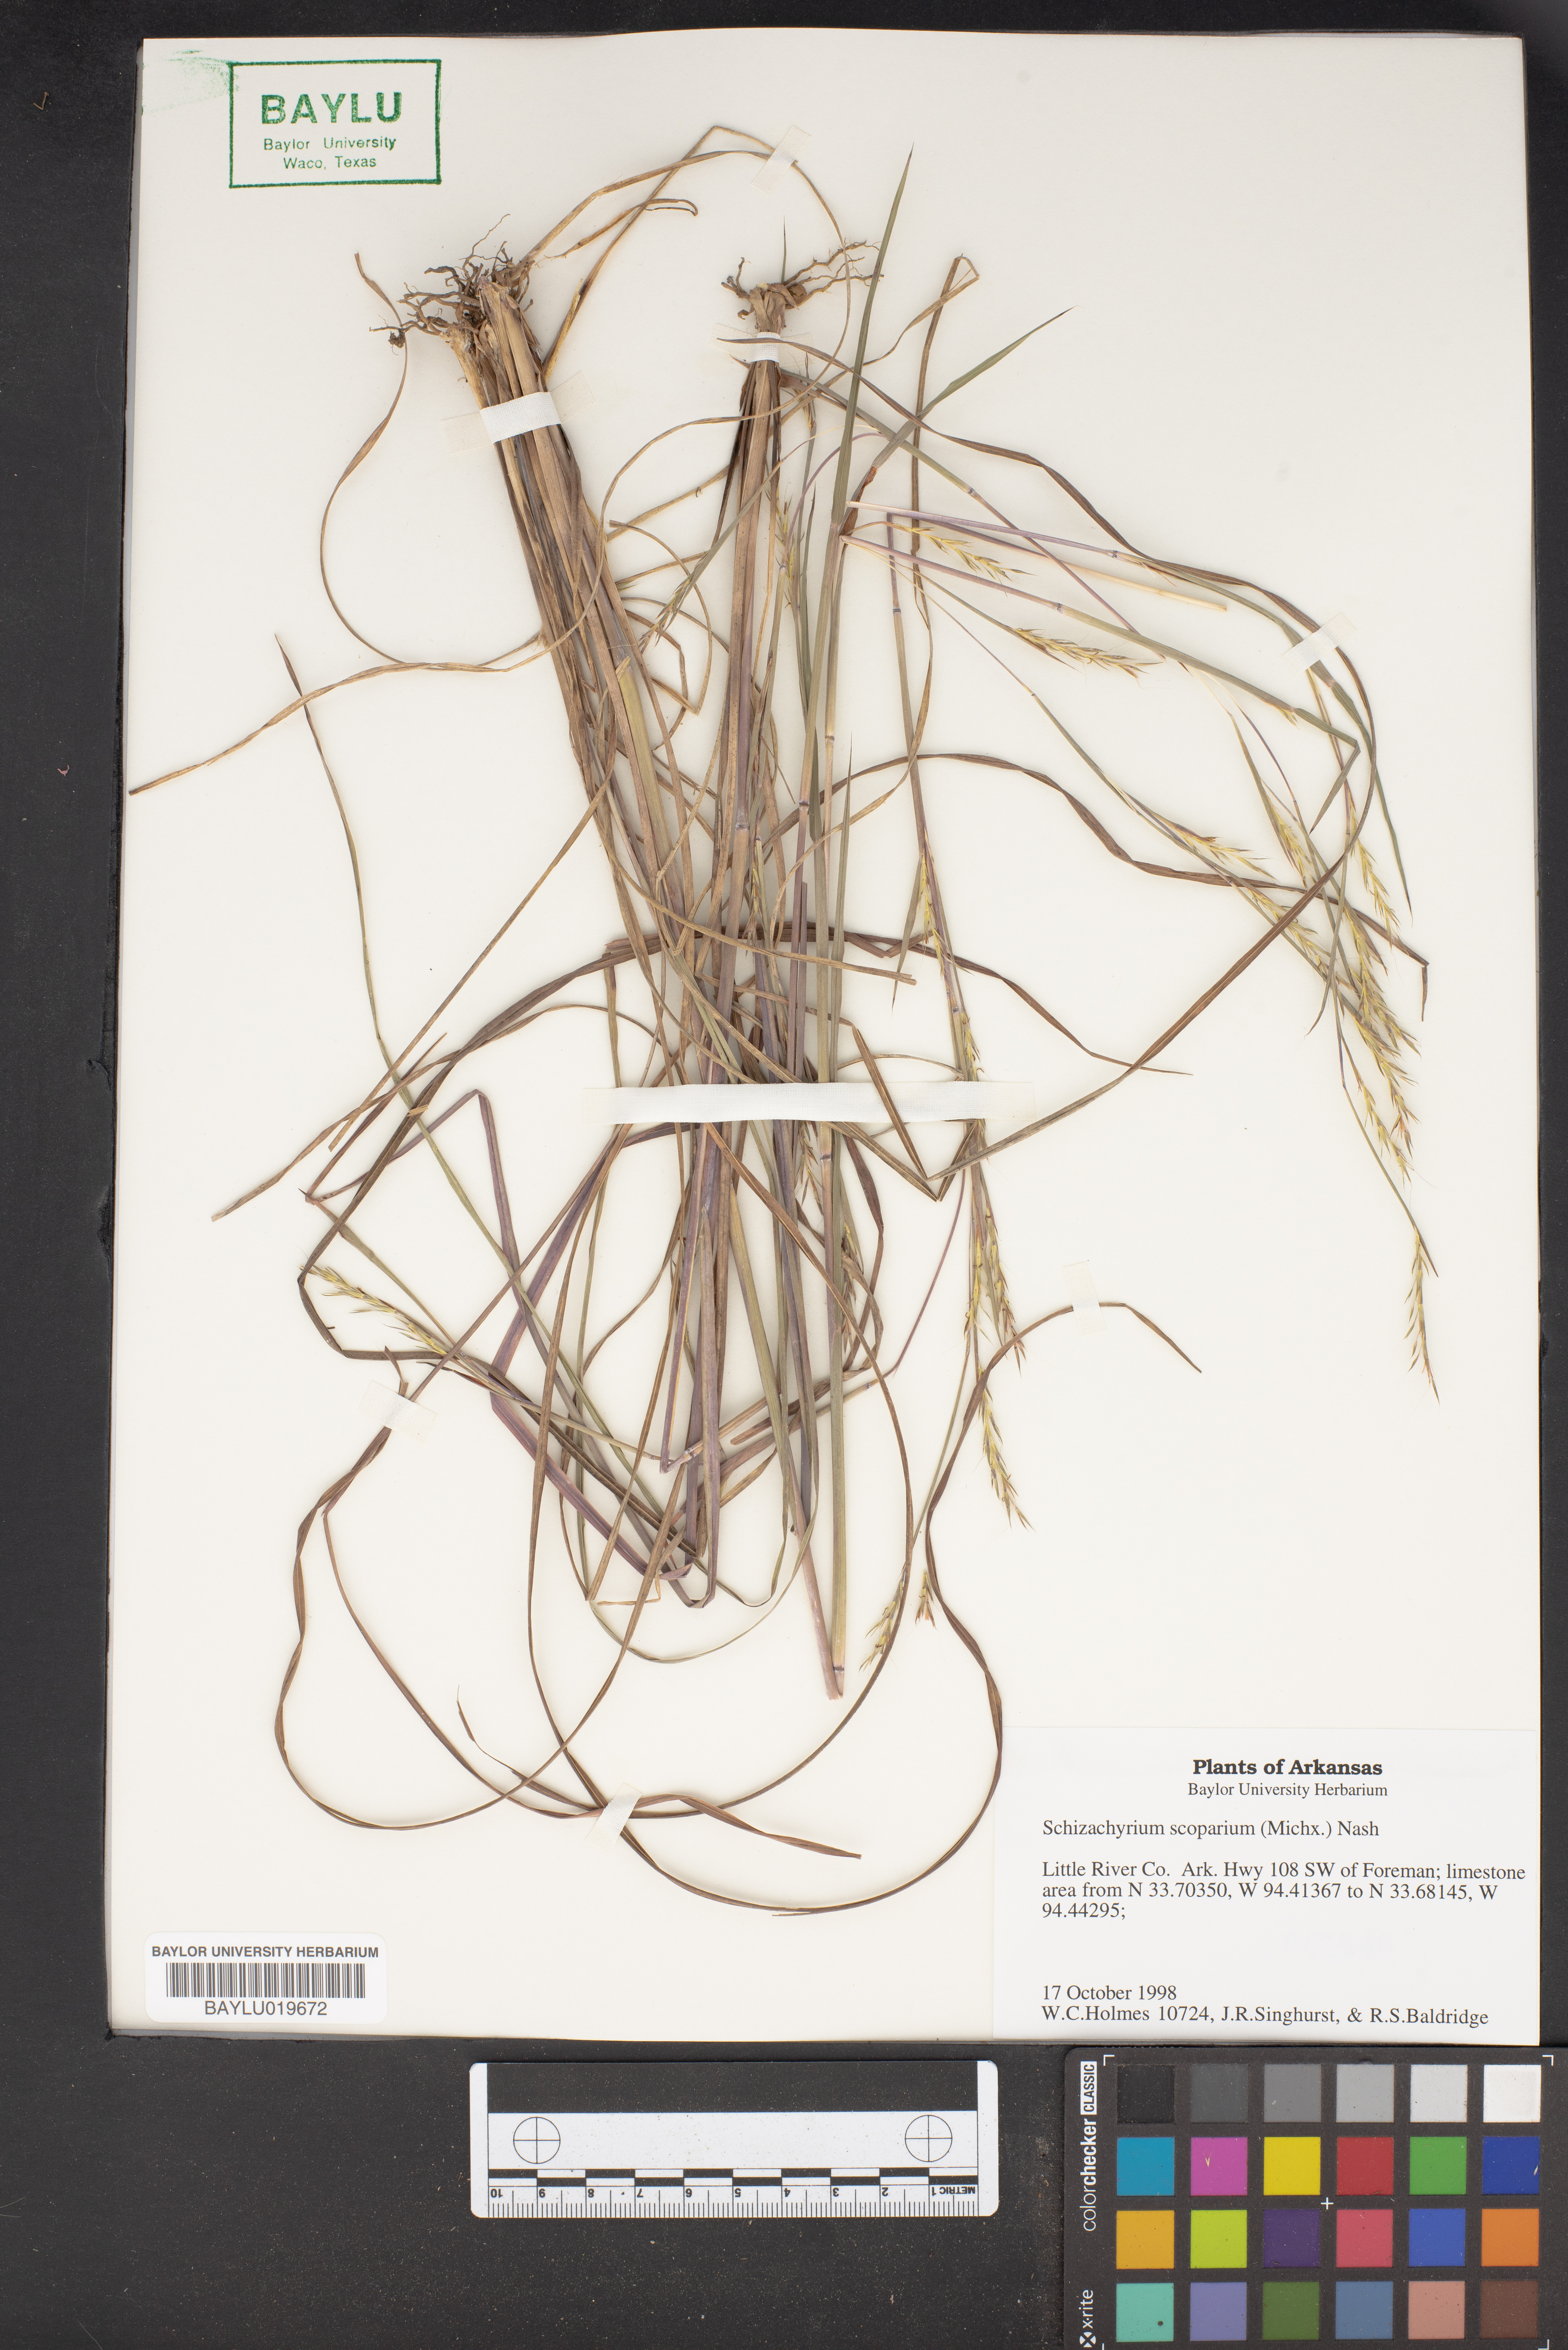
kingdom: Plantae
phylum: Tracheophyta
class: Liliopsida
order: Poales
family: Poaceae
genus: Schizachyrium
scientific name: Schizachyrium scoparium
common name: Little bluestem
